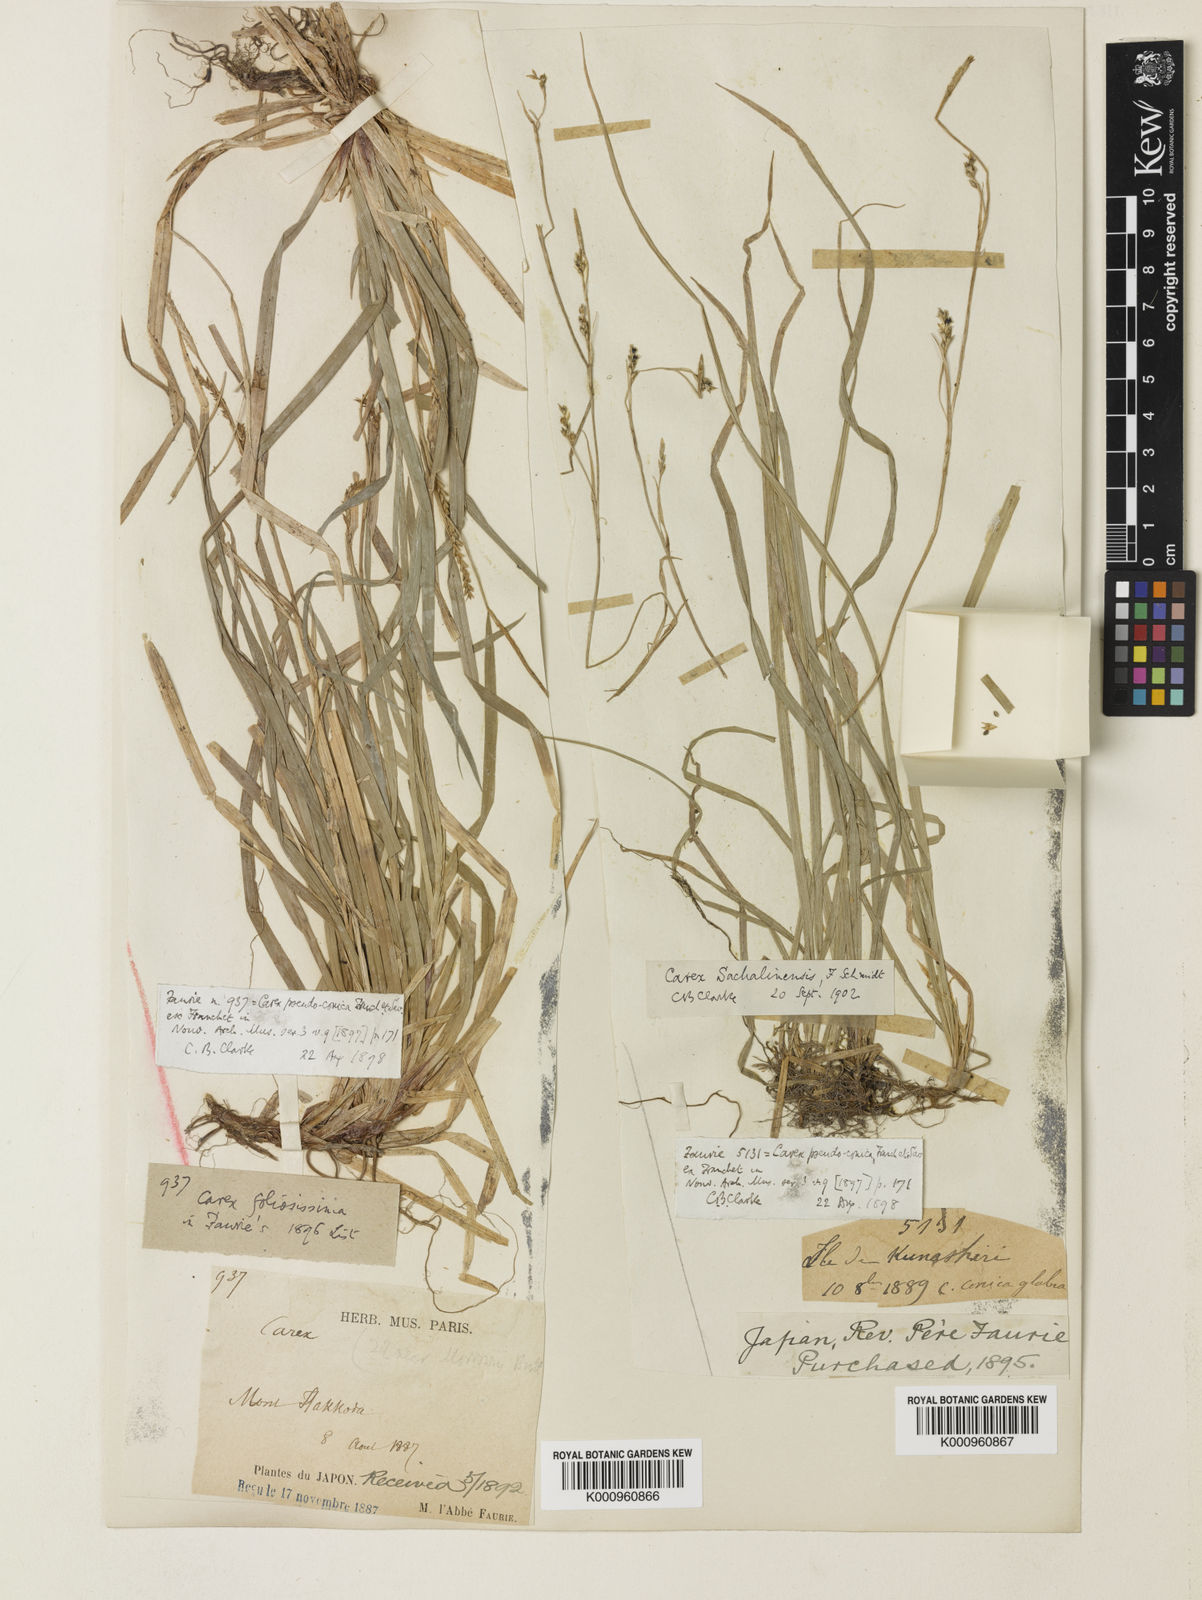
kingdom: Plantae
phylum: Tracheophyta
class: Liliopsida
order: Poales
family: Cyperaceae
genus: Carex
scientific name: Carex pisiformis
